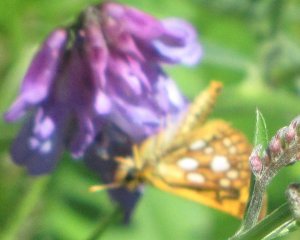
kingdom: Animalia
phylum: Arthropoda
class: Insecta
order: Lepidoptera
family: Hesperiidae
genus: Carterocephalus
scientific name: Carterocephalus palaemon
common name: Chequered Skipper
